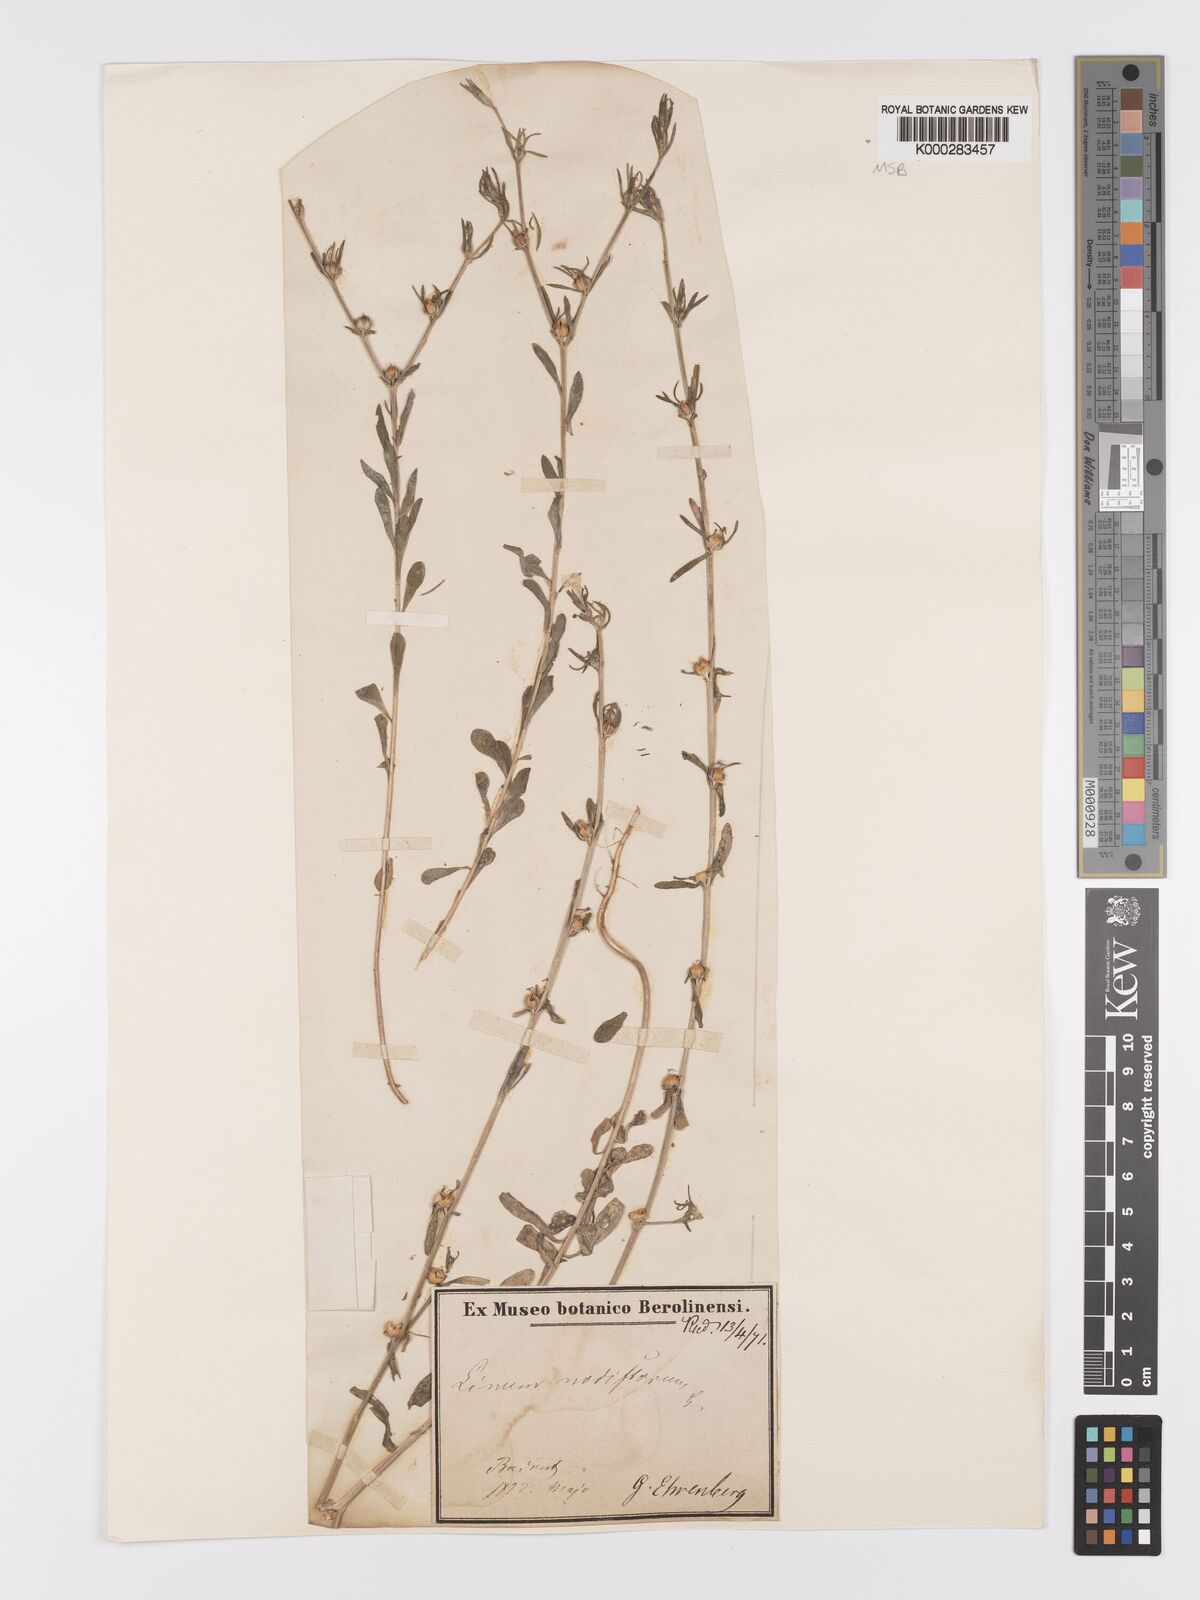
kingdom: Plantae
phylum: Tracheophyta
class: Magnoliopsida
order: Malpighiales
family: Linaceae
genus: Linum
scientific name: Linum nodiflorum
